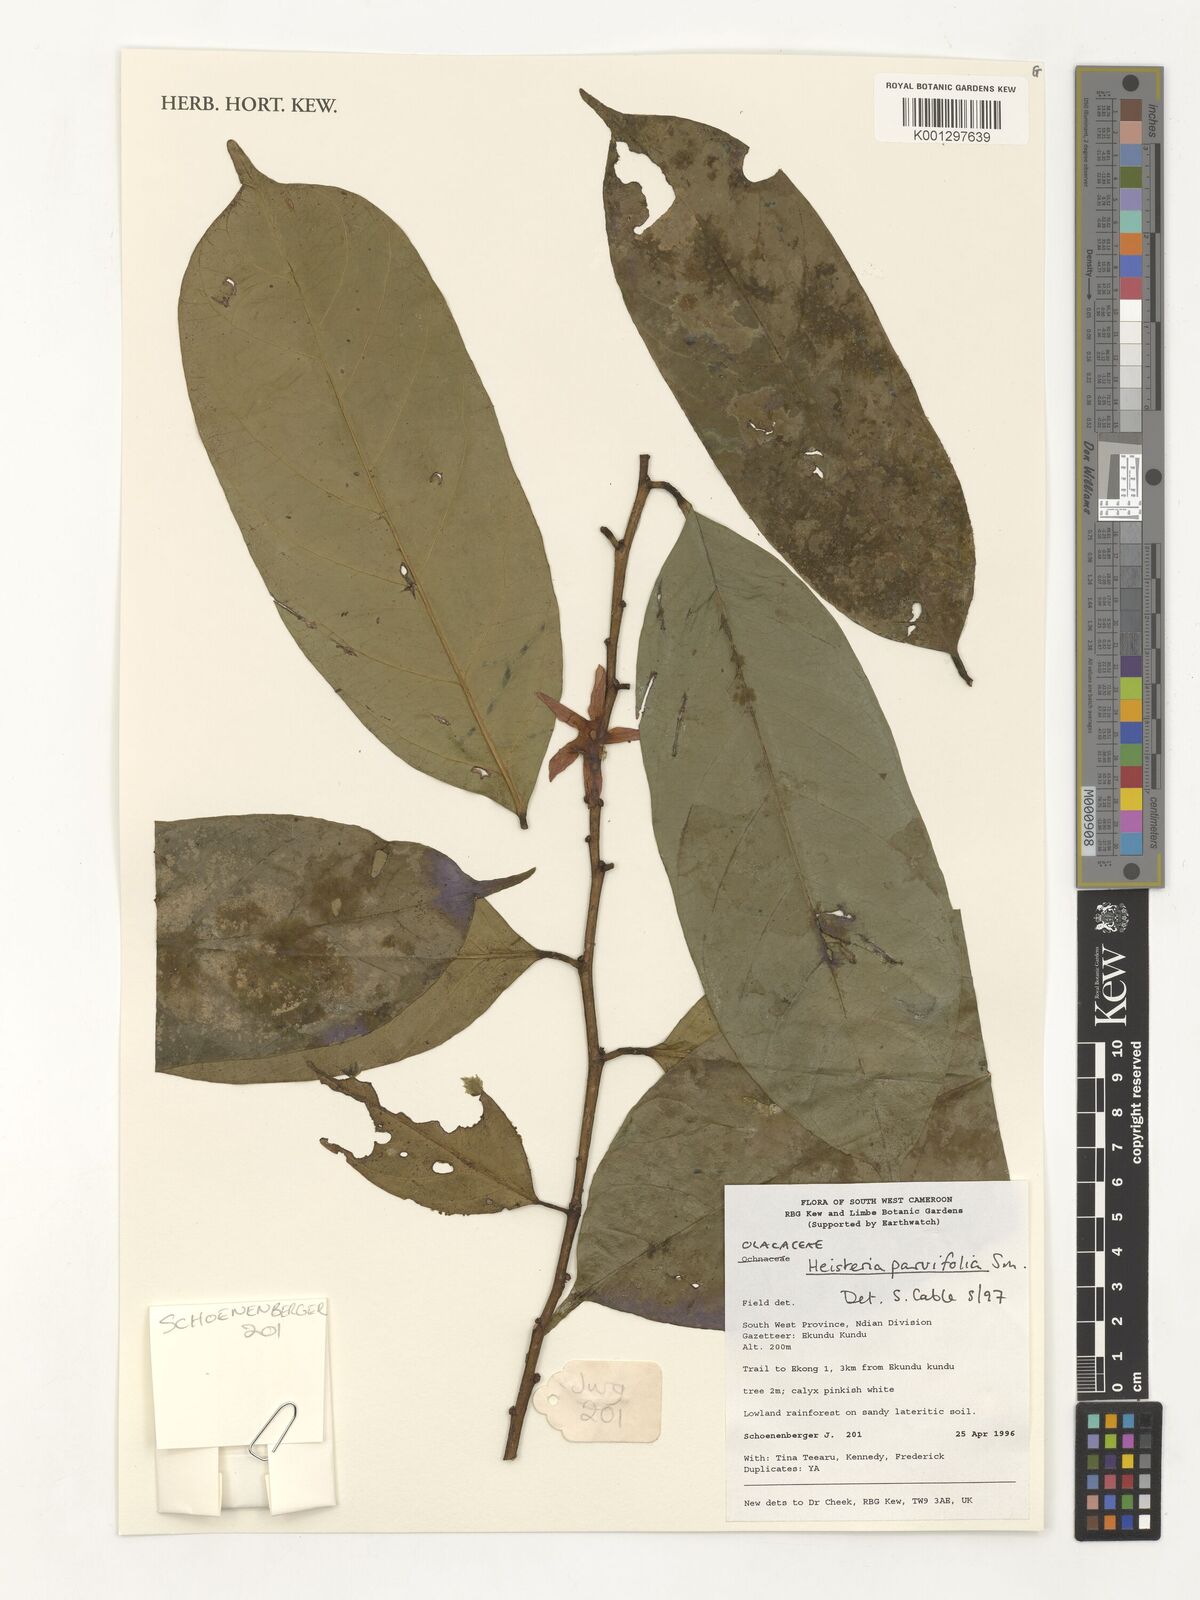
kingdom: Plantae
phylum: Tracheophyta
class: Magnoliopsida
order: Santalales
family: Erythropalaceae
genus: Heisteria
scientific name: Heisteria parvifolia
